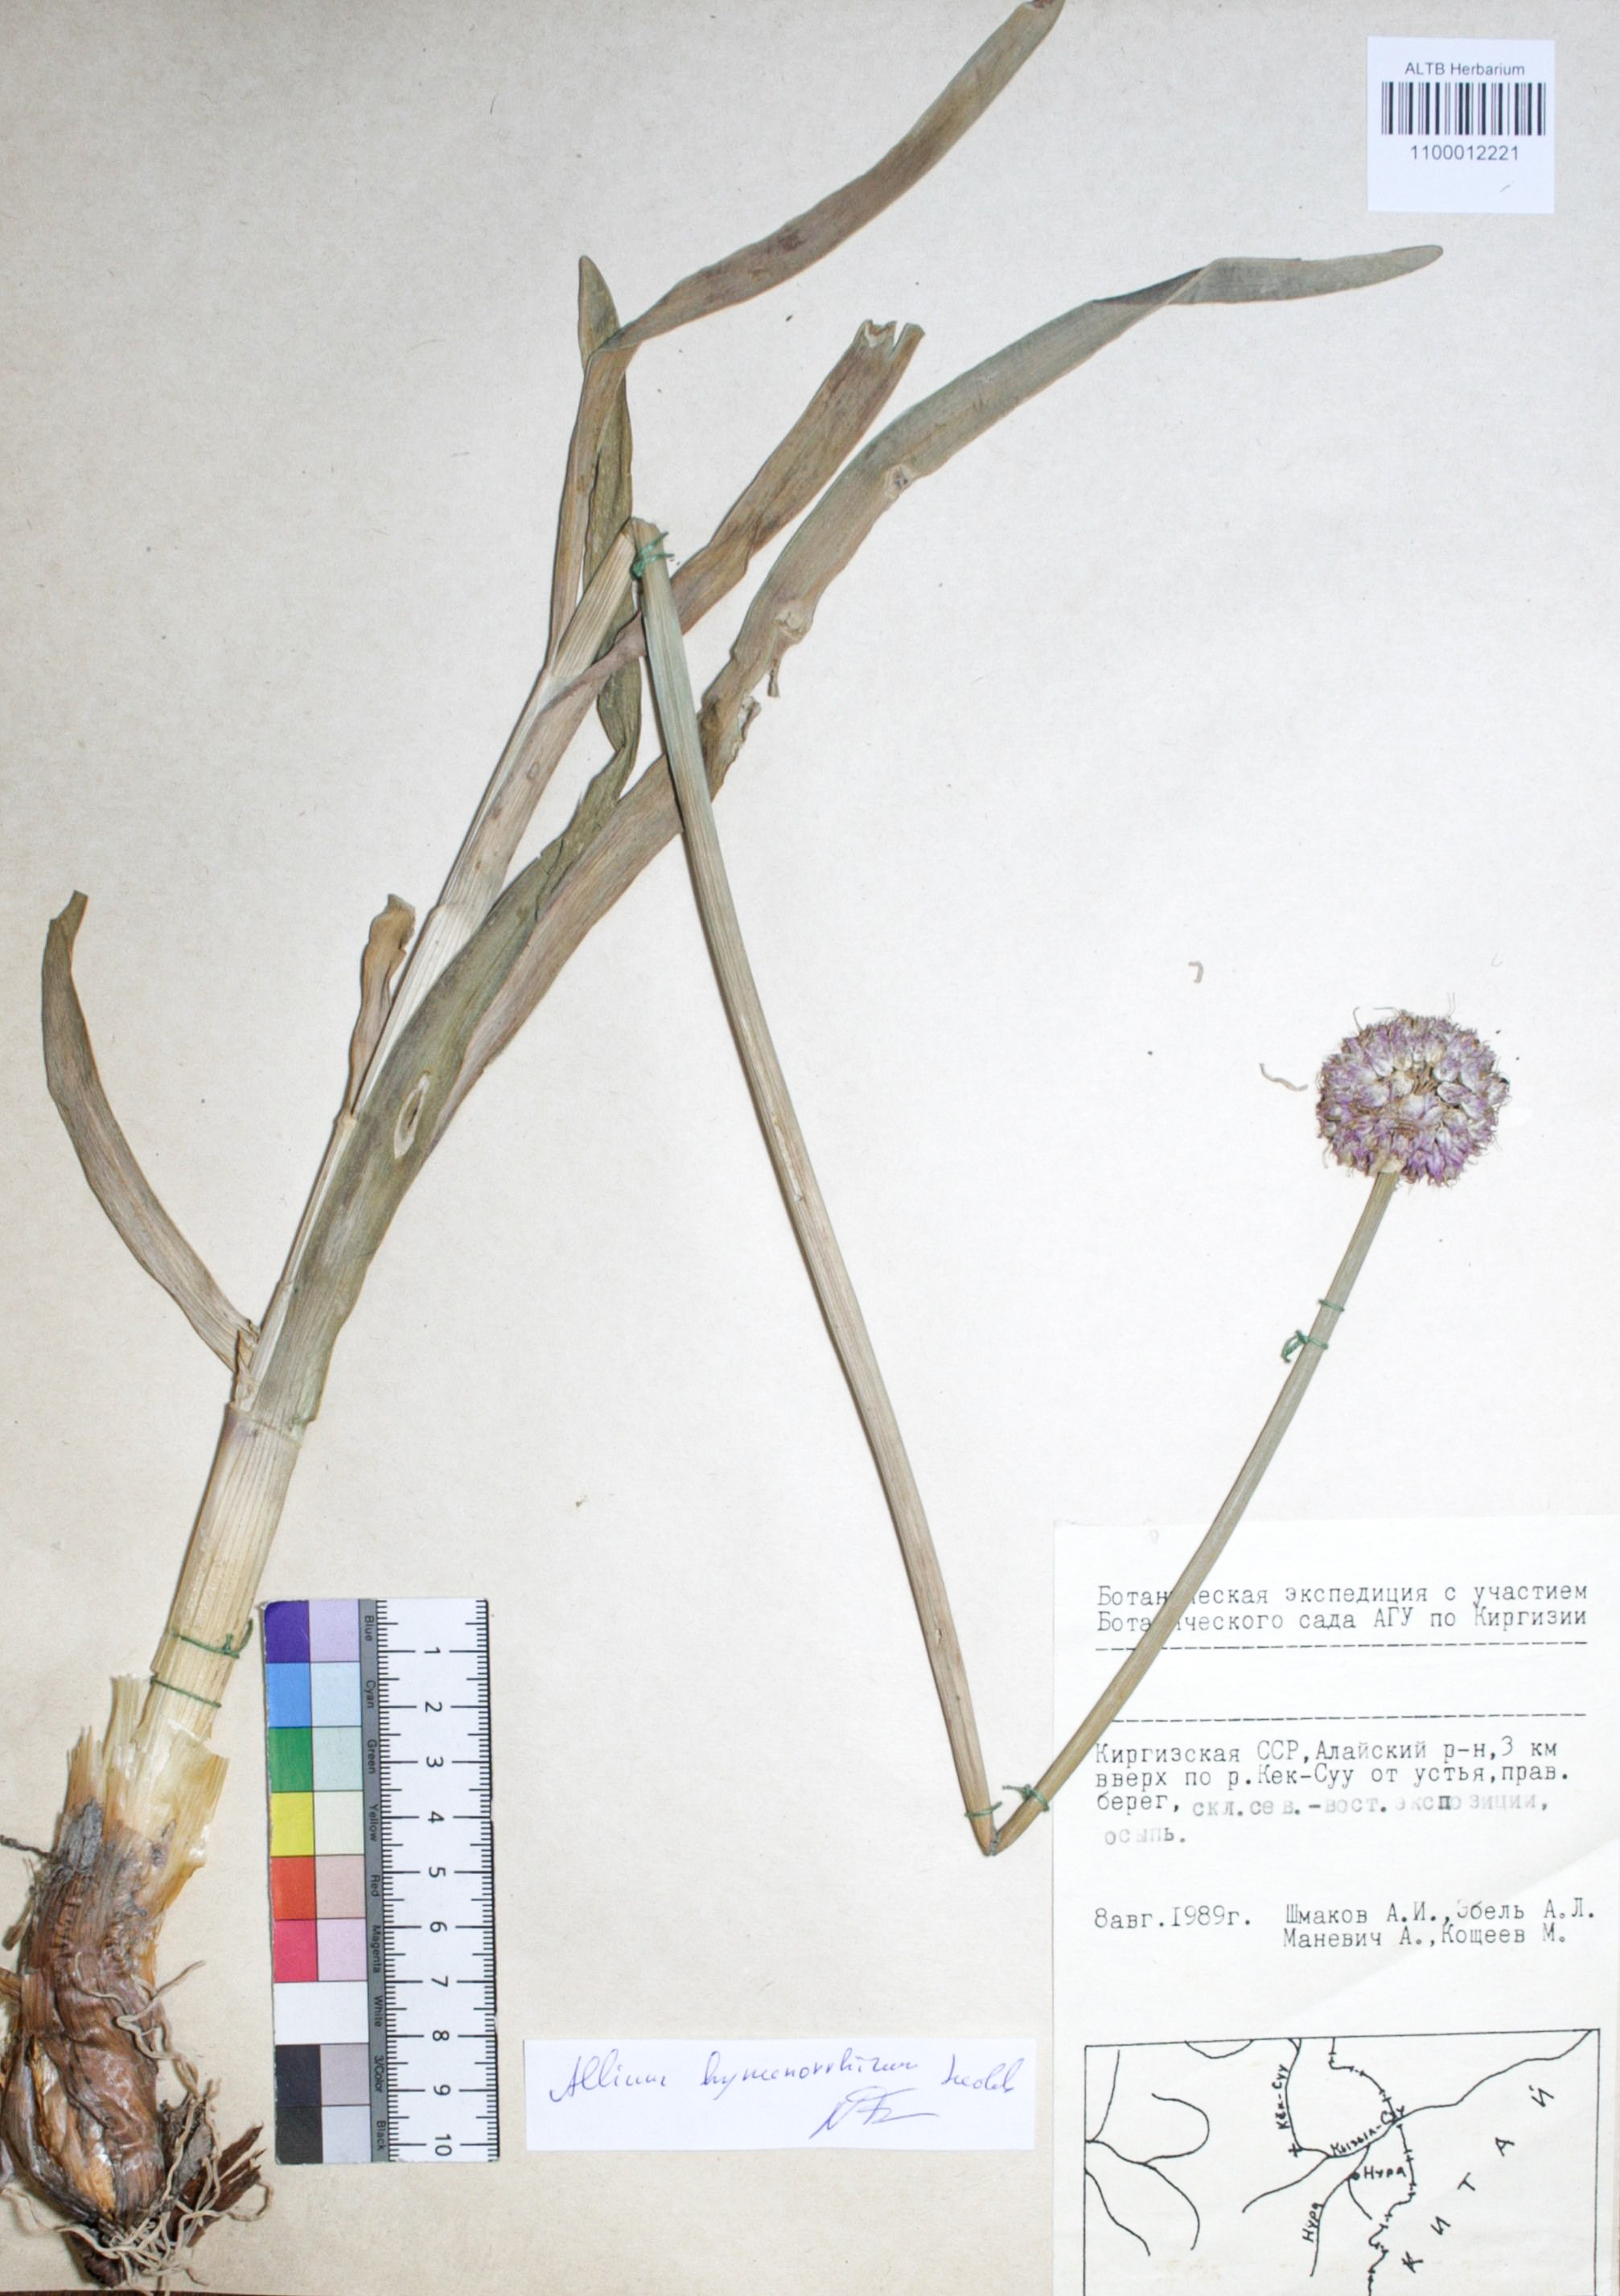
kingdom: Plantae
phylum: Tracheophyta
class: Liliopsida
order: Asparagales
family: Amaryllidaceae
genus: Allium
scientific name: Allium hymenorhizum
